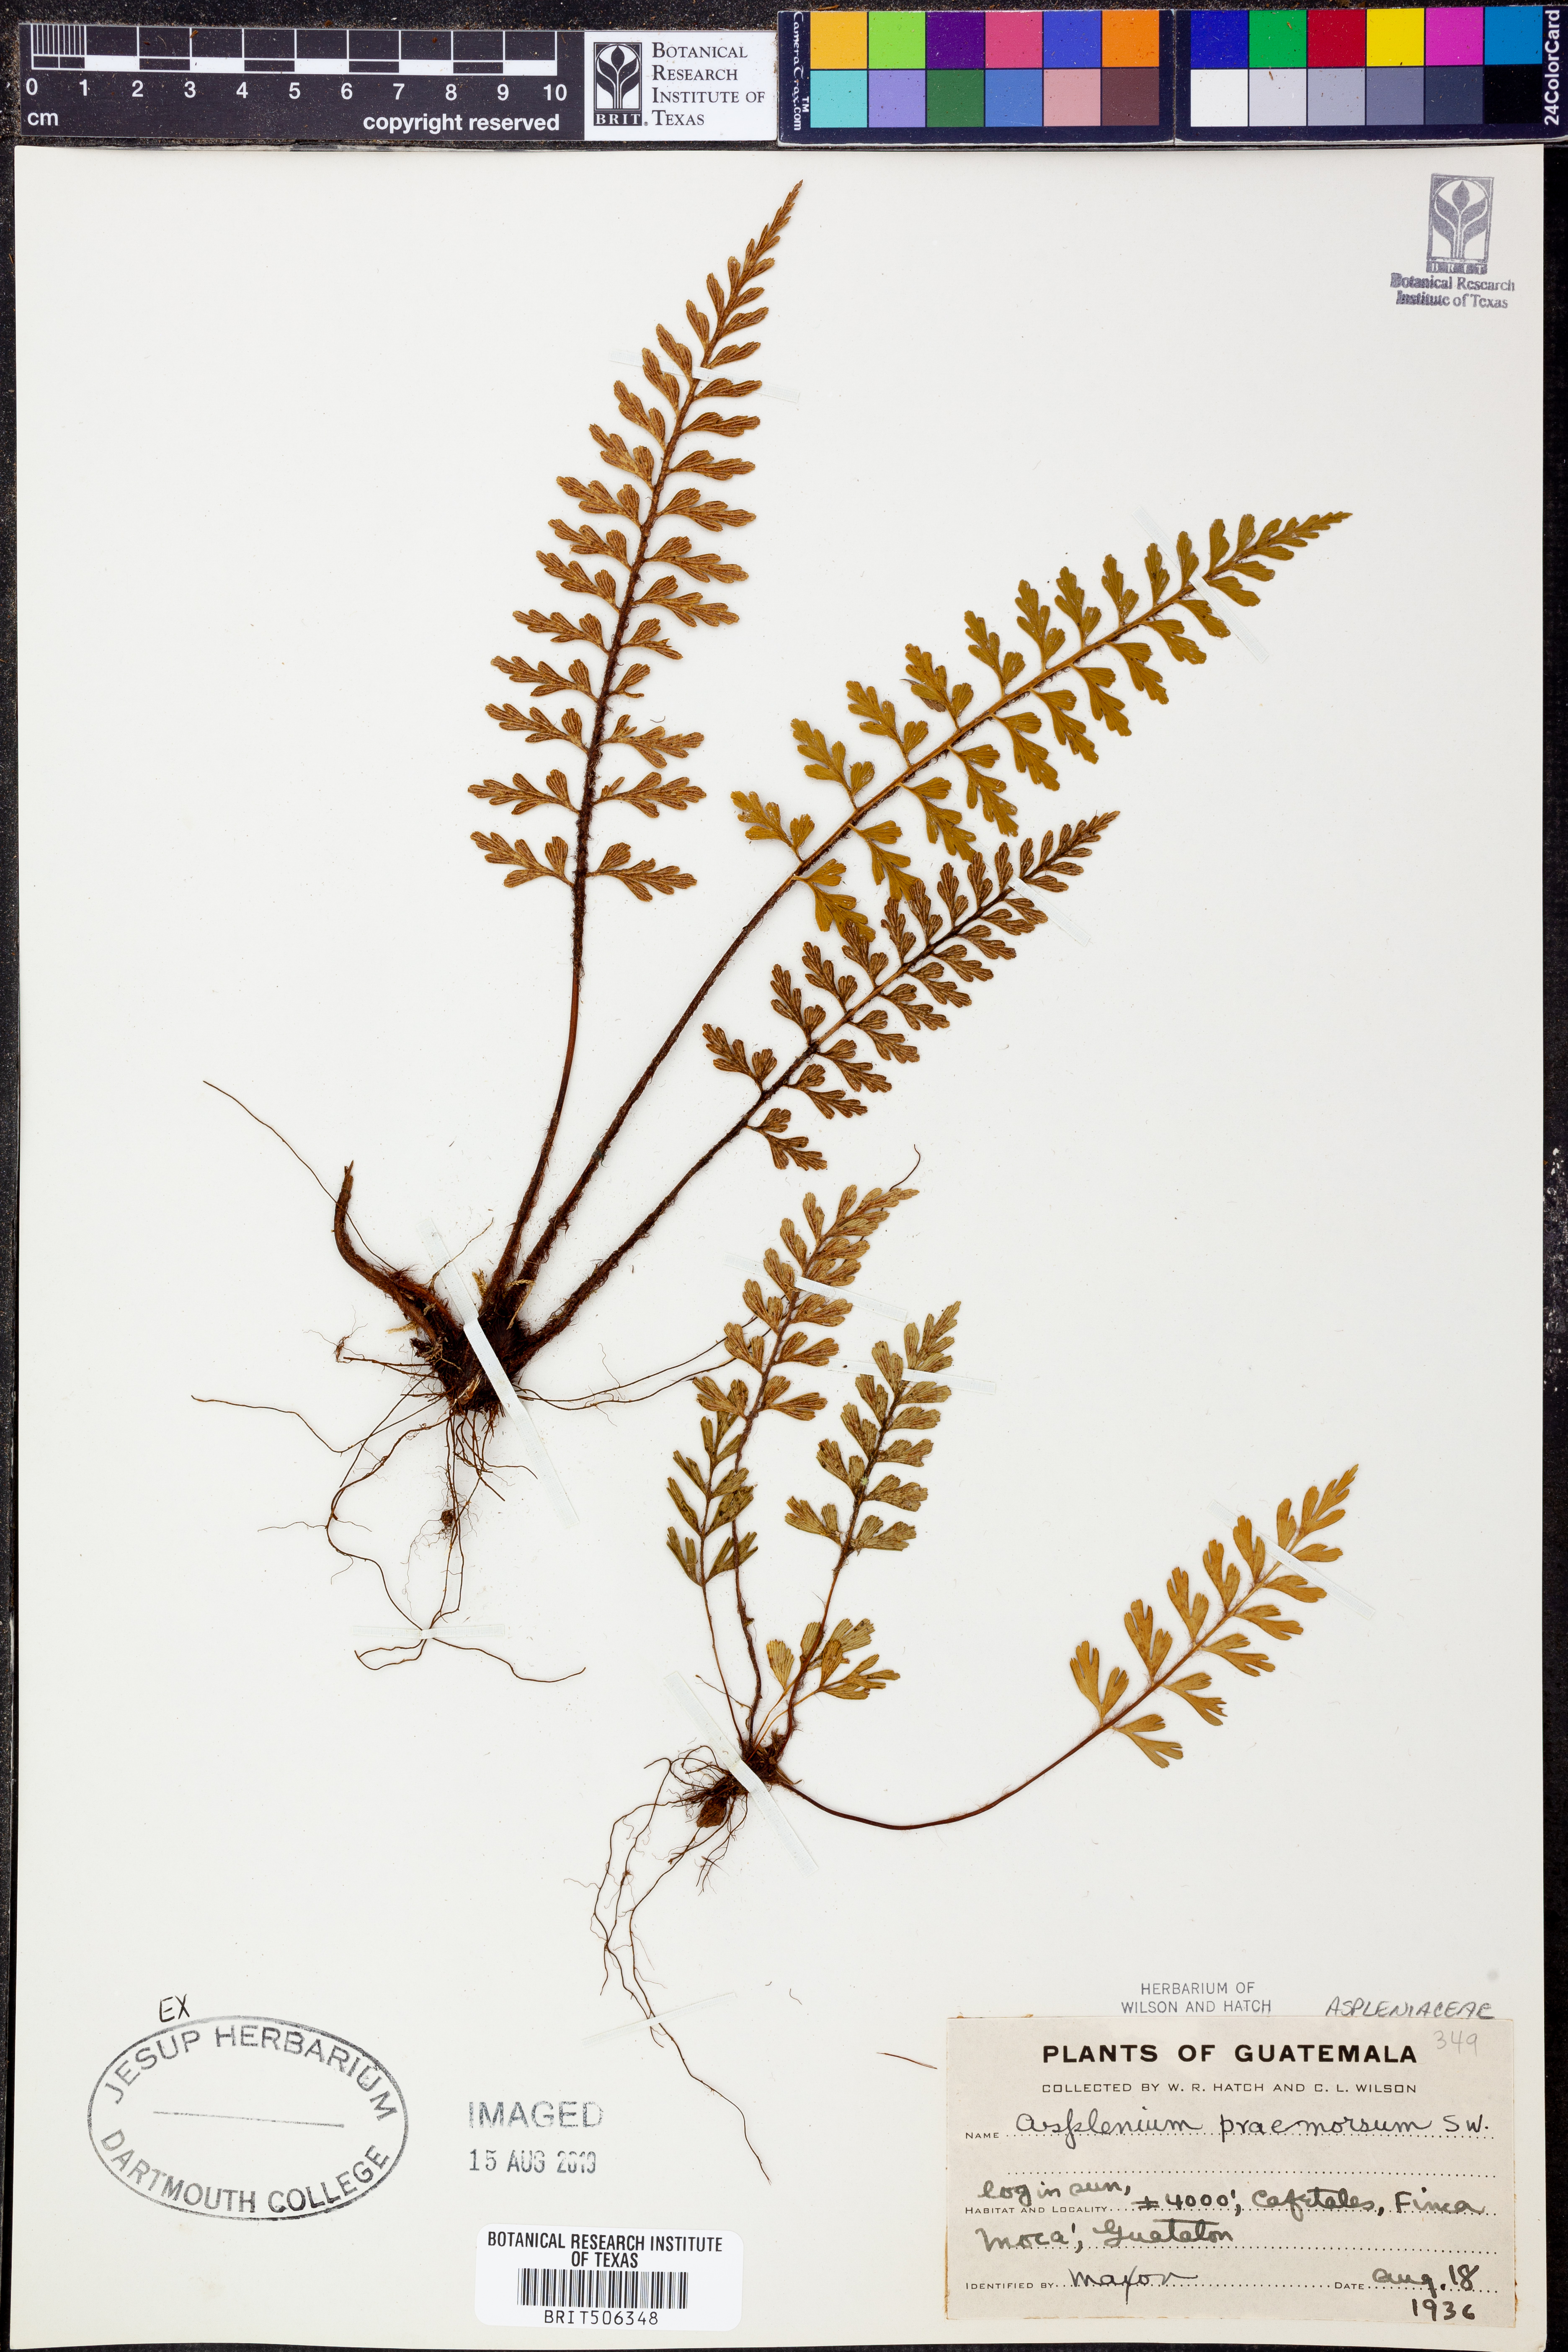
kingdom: Plantae
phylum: Tracheophyta
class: Polypodiopsida
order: Polypodiales
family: Aspleniaceae
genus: Asplenium
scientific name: Asplenium praemorsum
